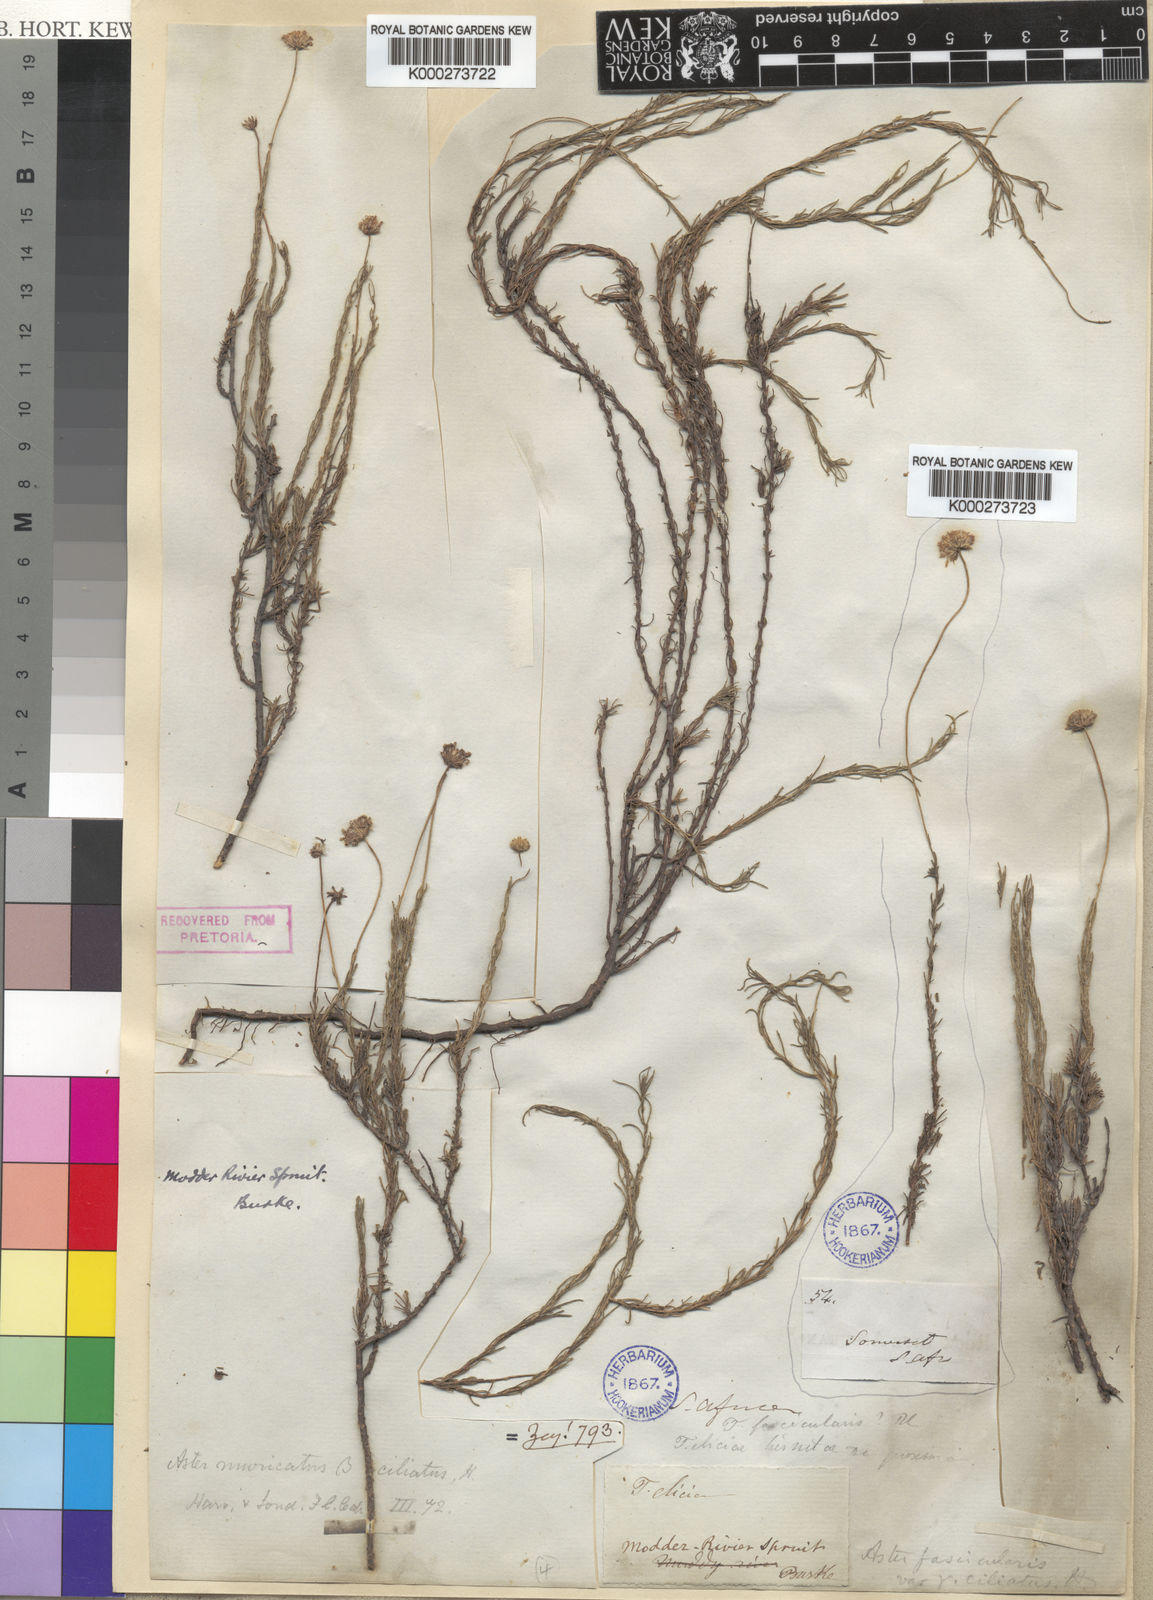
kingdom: Plantae
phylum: Tracheophyta
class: Magnoliopsida
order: Asterales
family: Asteraceae
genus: Felicia
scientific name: Felicia muricata
